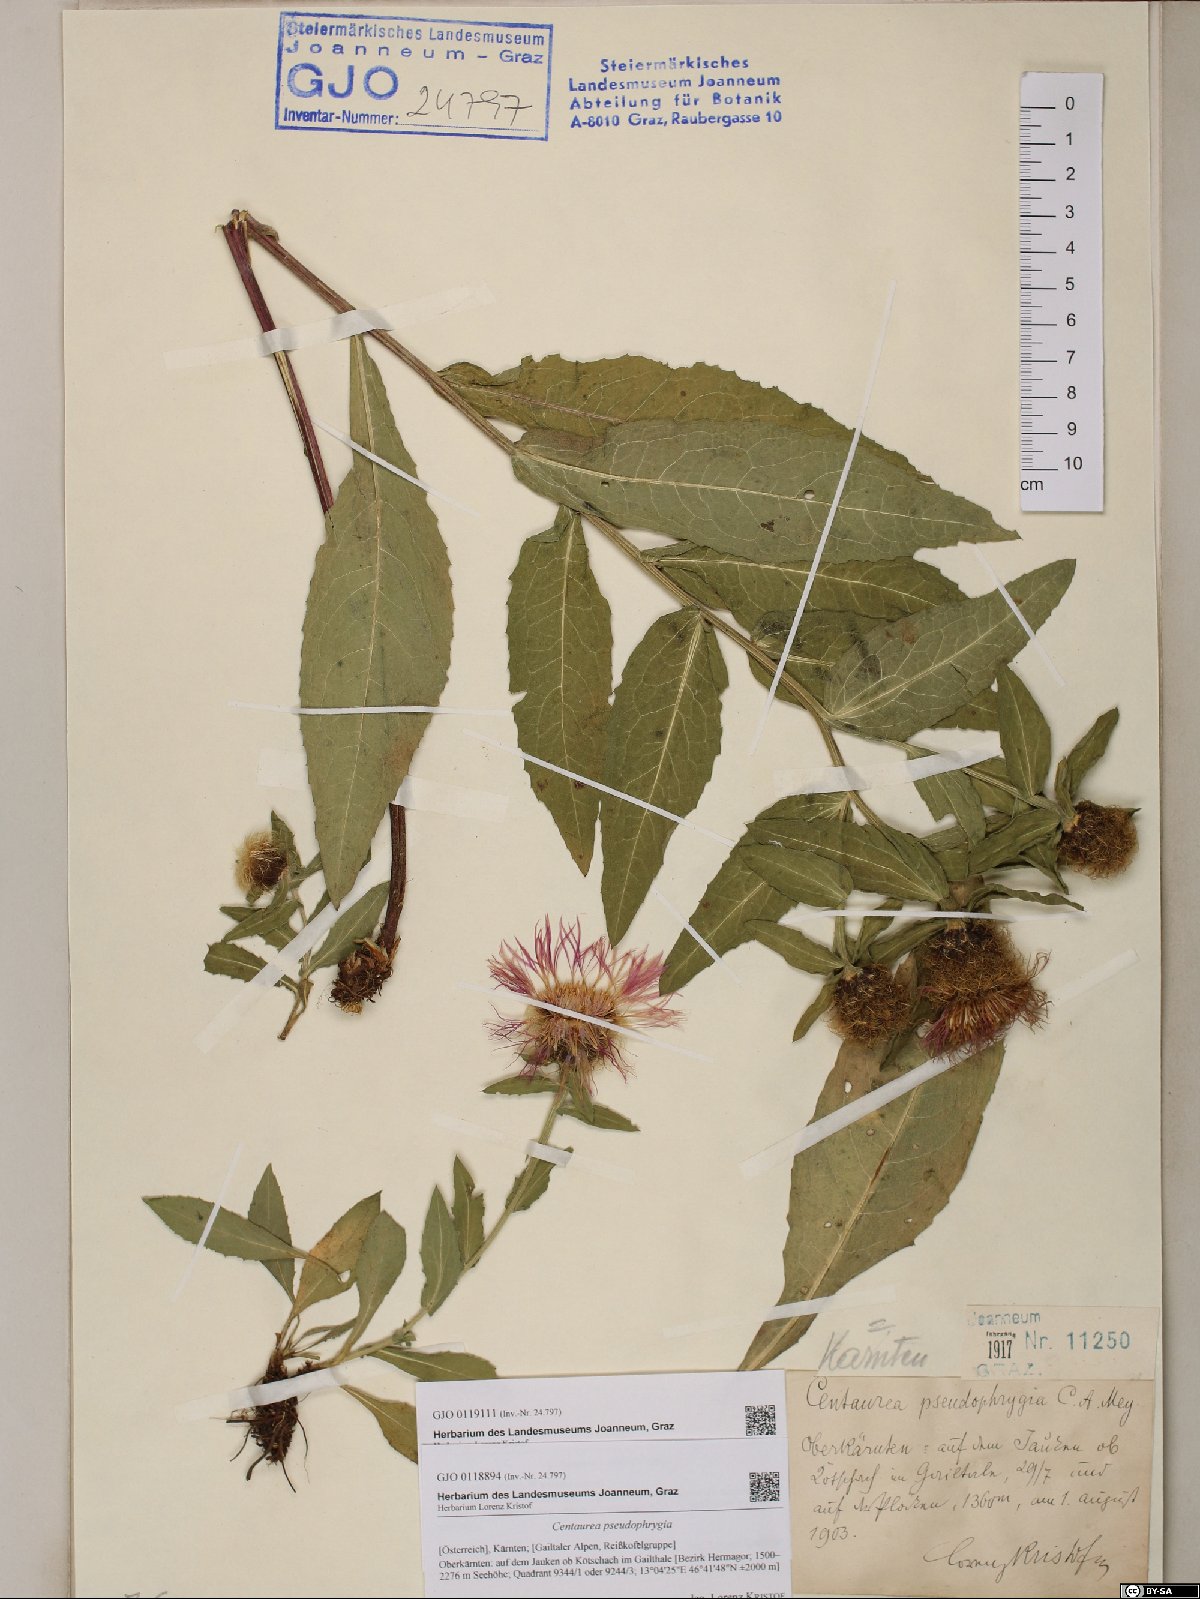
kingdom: Plantae
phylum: Tracheophyta
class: Magnoliopsida
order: Asterales
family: Asteraceae
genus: Centaurea
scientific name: Centaurea pseudophrygia
